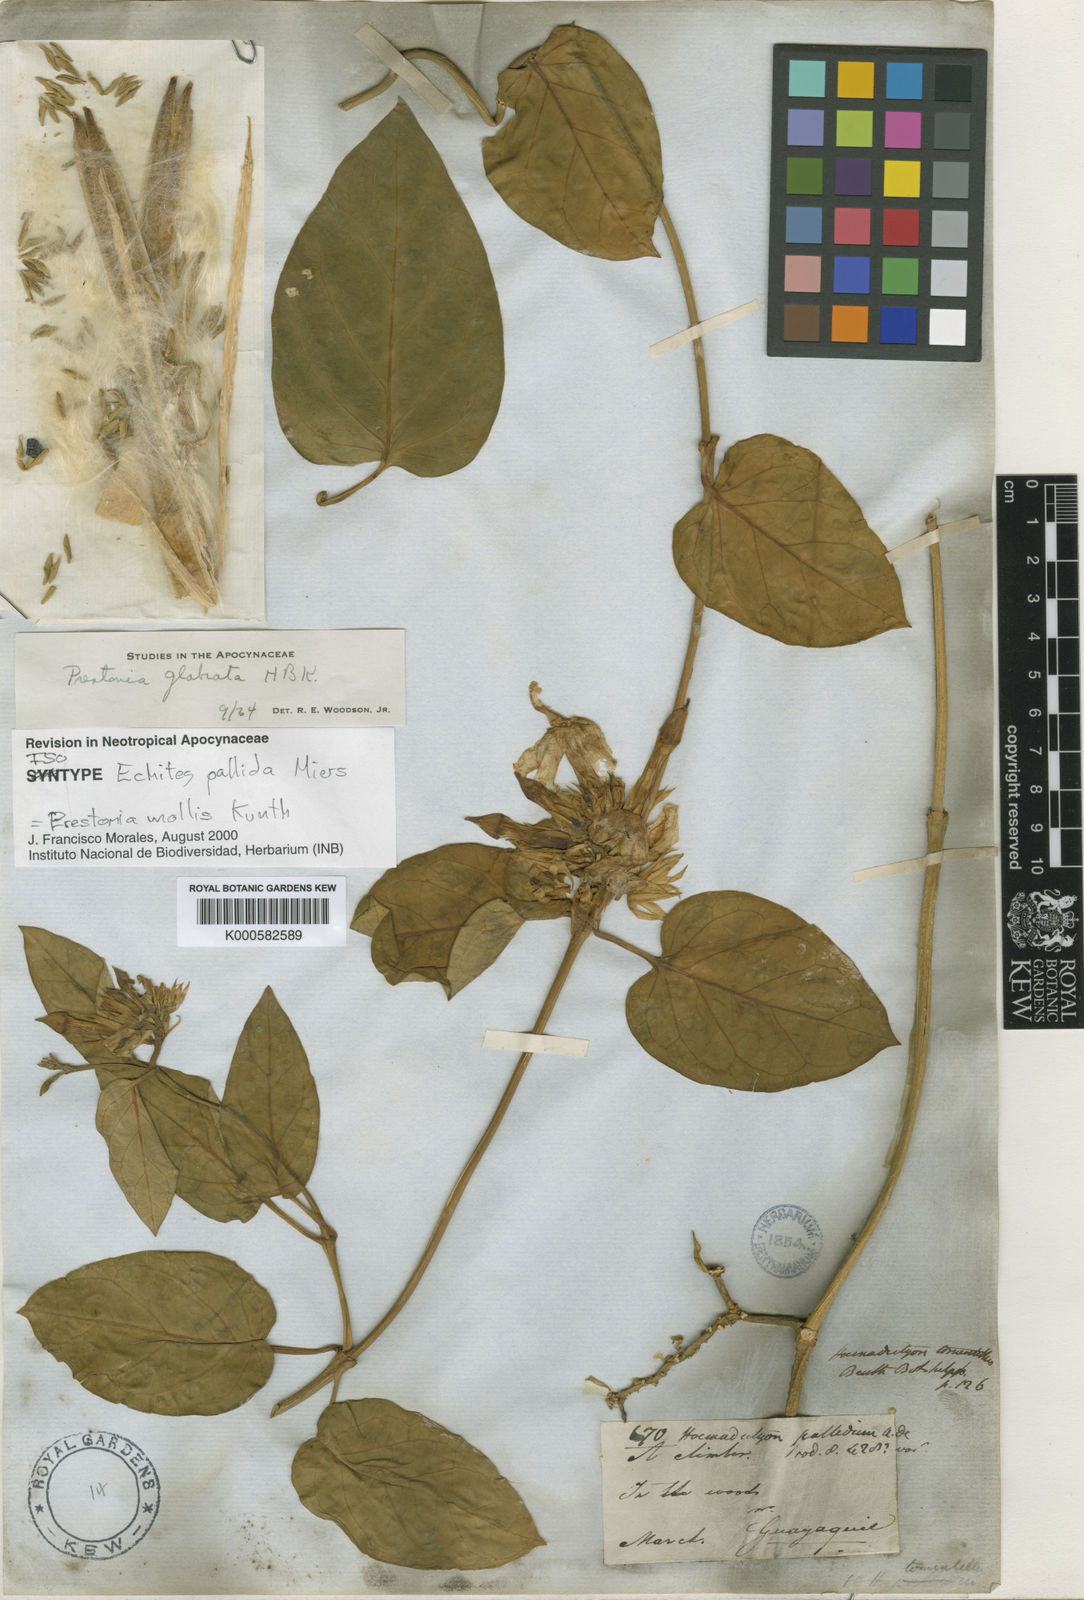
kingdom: Plantae
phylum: Tracheophyta
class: Magnoliopsida
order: Gentianales
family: Apocynaceae
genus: Prestonia
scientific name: Prestonia mollis
